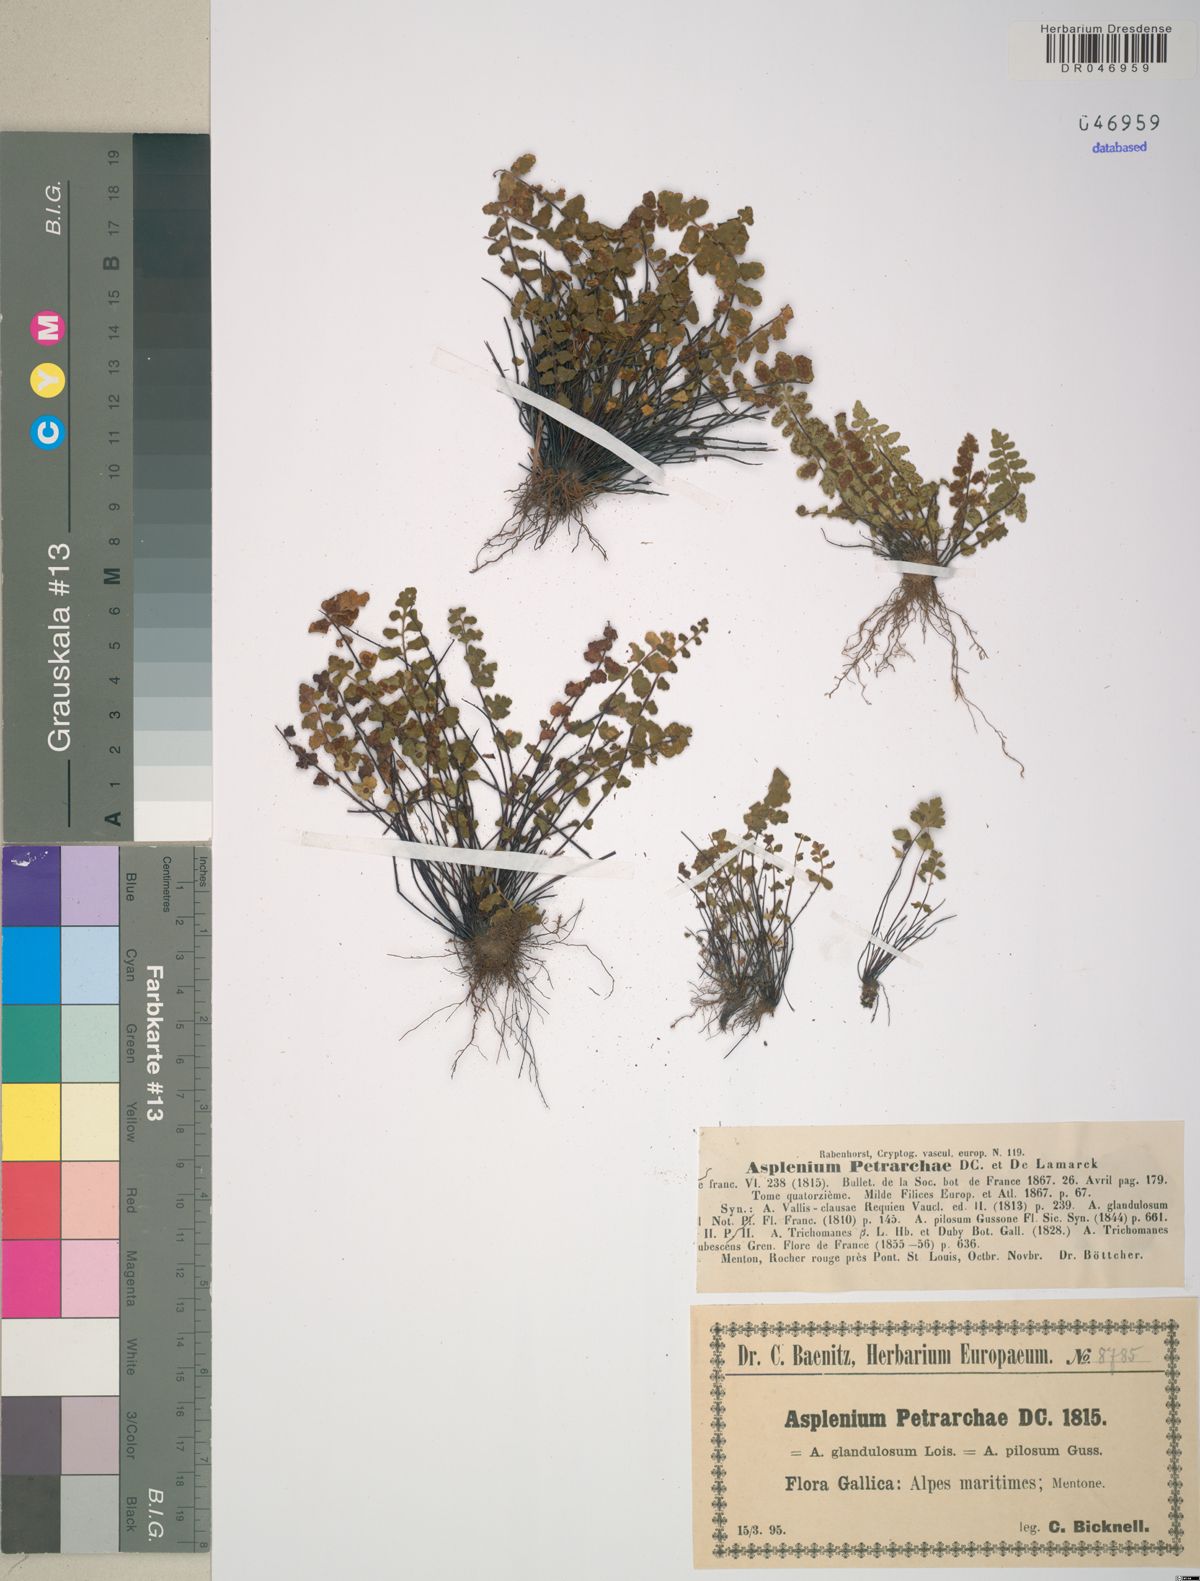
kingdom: Plantae
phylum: Tracheophyta
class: Polypodiopsida
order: Polypodiales
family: Aspleniaceae
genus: Asplenium
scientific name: Asplenium petrarchae
